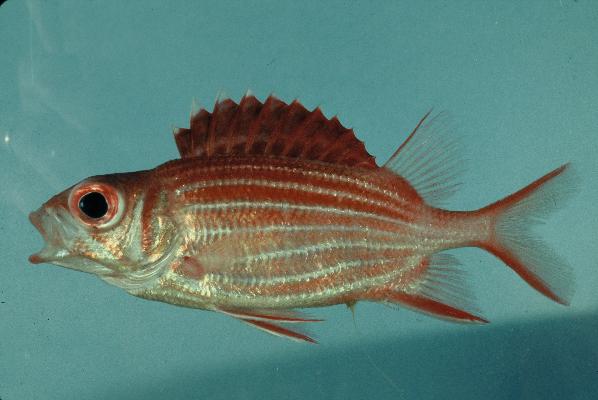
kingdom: Animalia
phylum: Chordata
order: Beryciformes
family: Holocentridae
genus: Sargocentron
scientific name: Sargocentron diadema
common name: Crown squirrelfish
